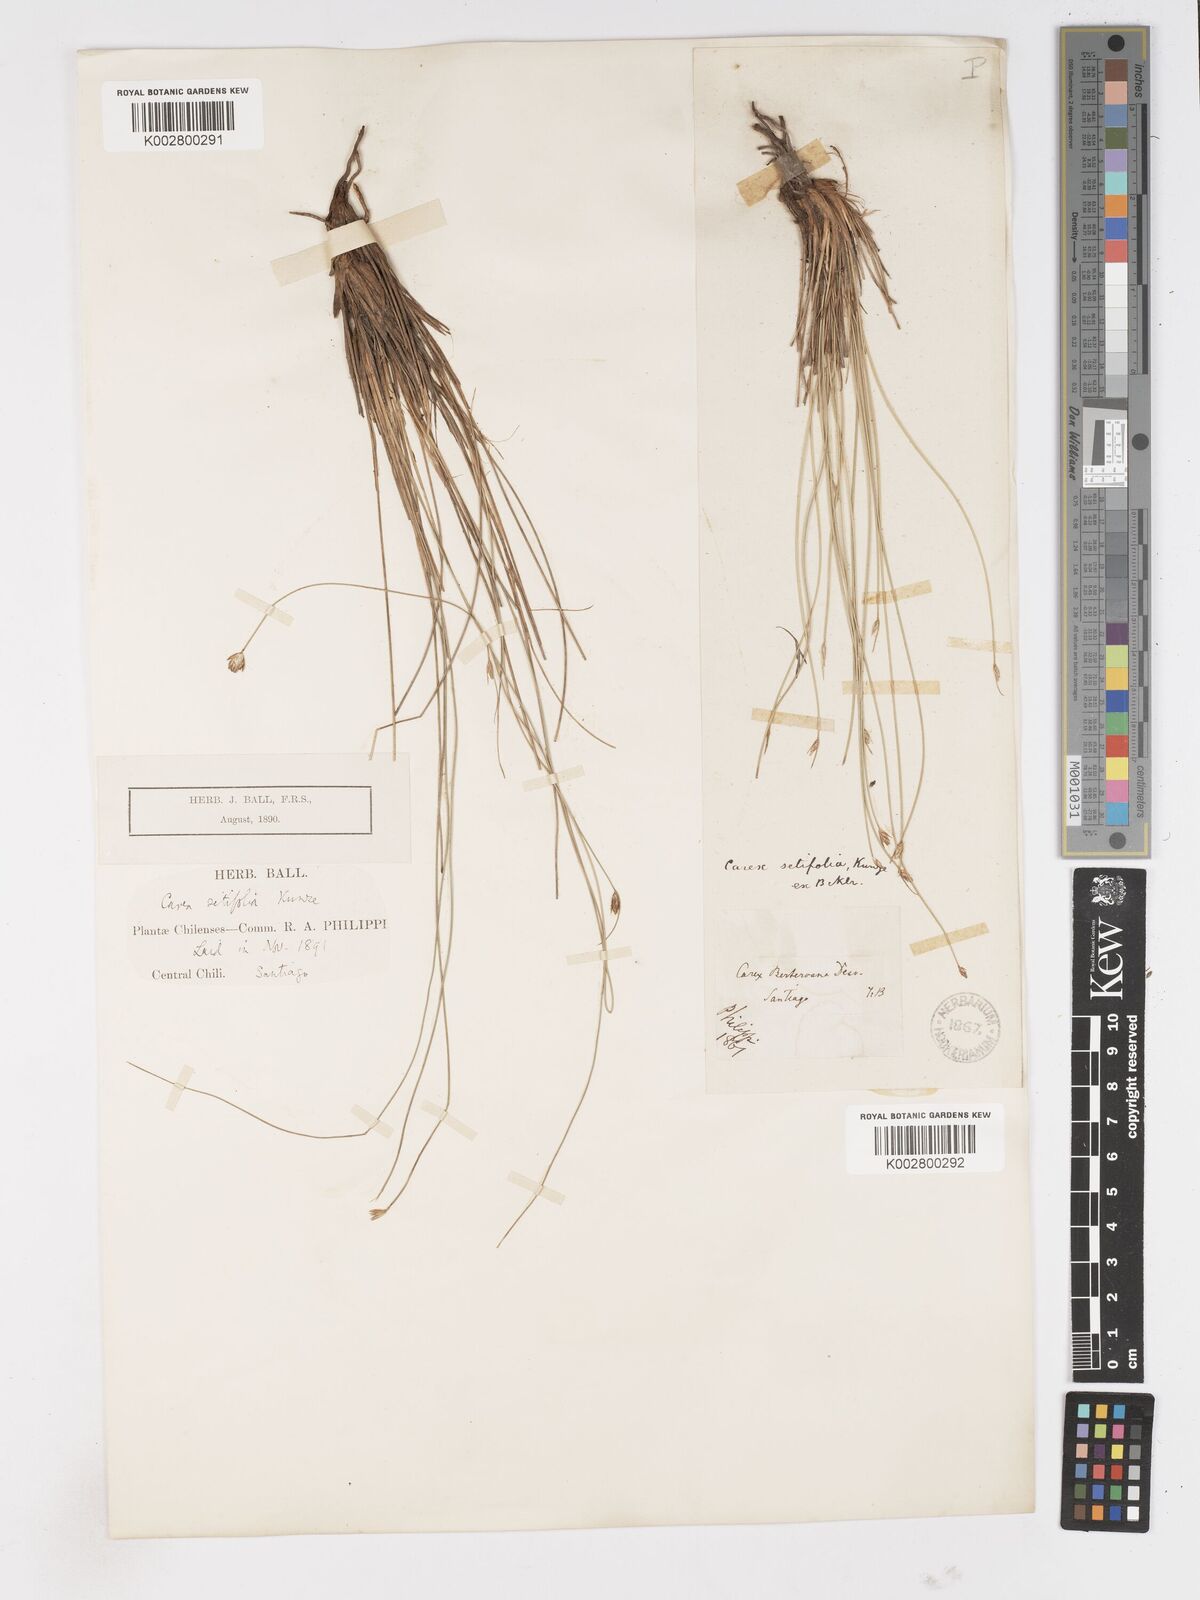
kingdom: Plantae
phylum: Tracheophyta
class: Liliopsida
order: Poales
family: Cyperaceae
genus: Carex
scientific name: Carex setifolia
